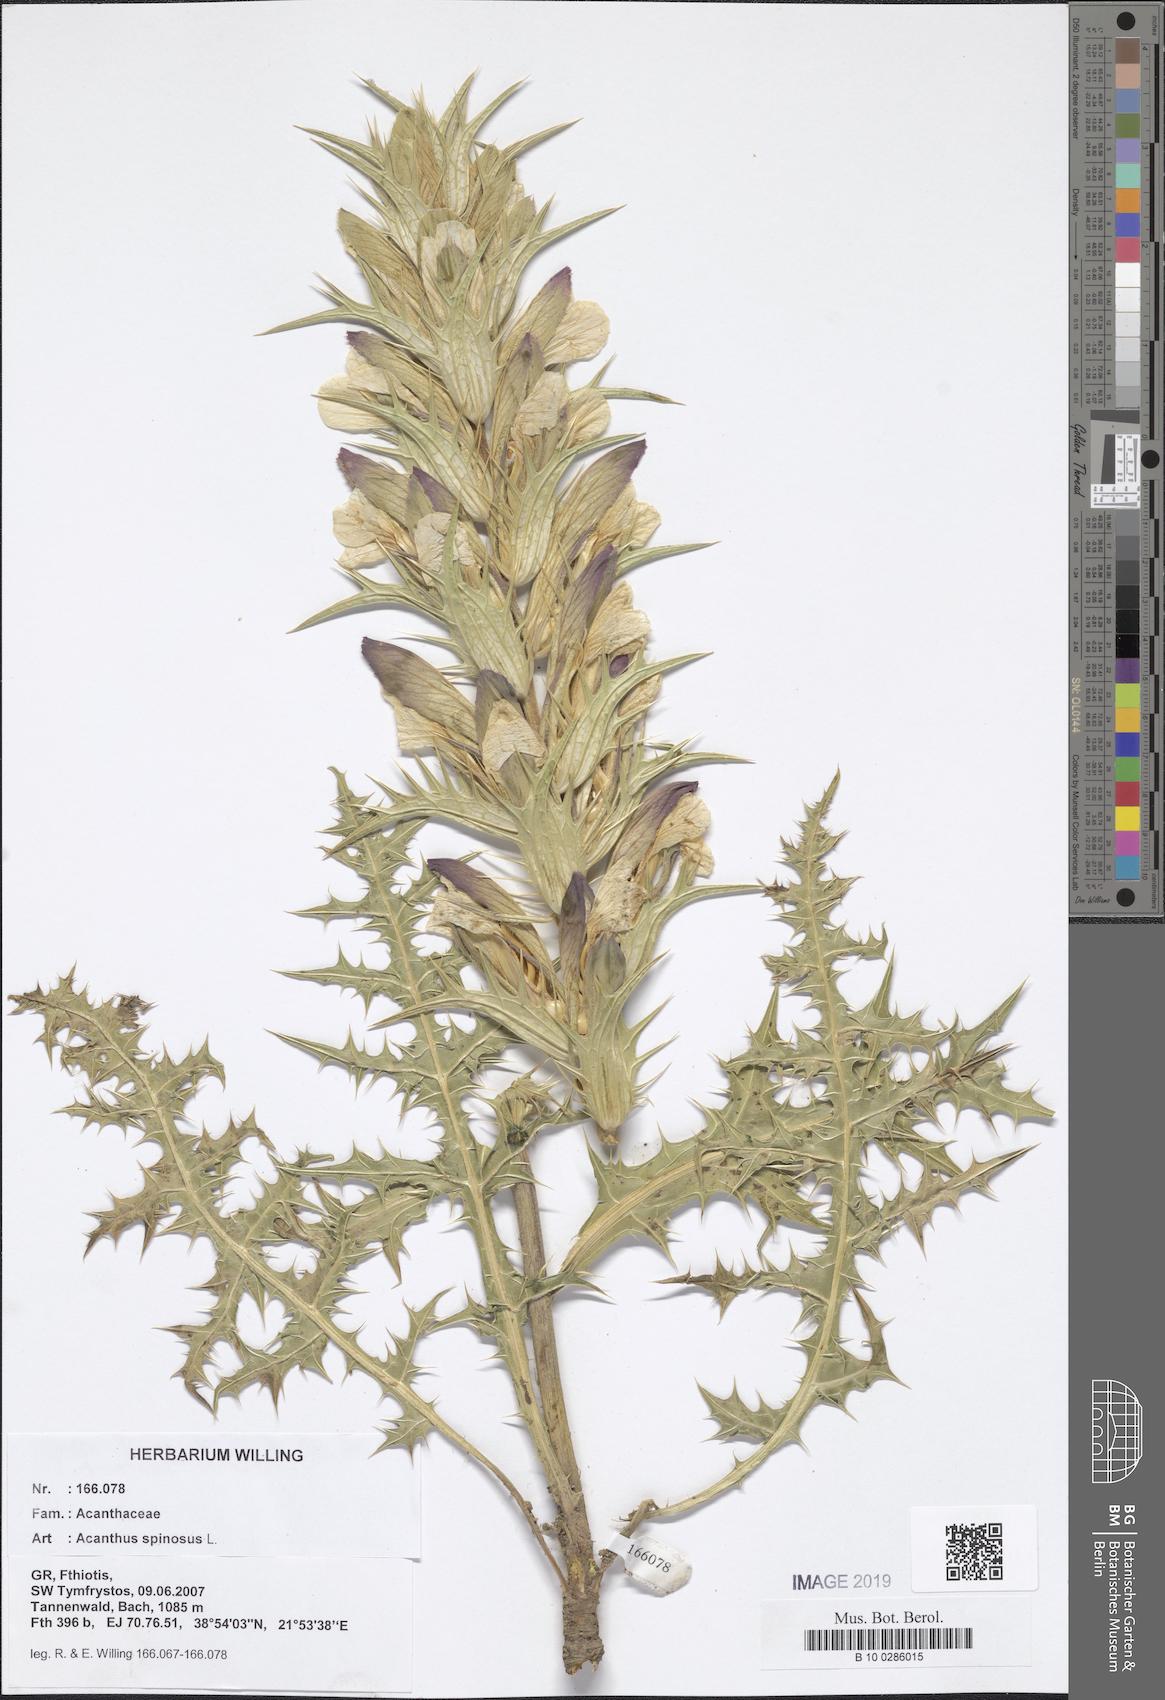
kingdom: Plantae
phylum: Tracheophyta
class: Magnoliopsida
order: Lamiales
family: Acanthaceae
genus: Acanthus
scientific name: Acanthus spinosus
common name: Spiny bear's-breech
